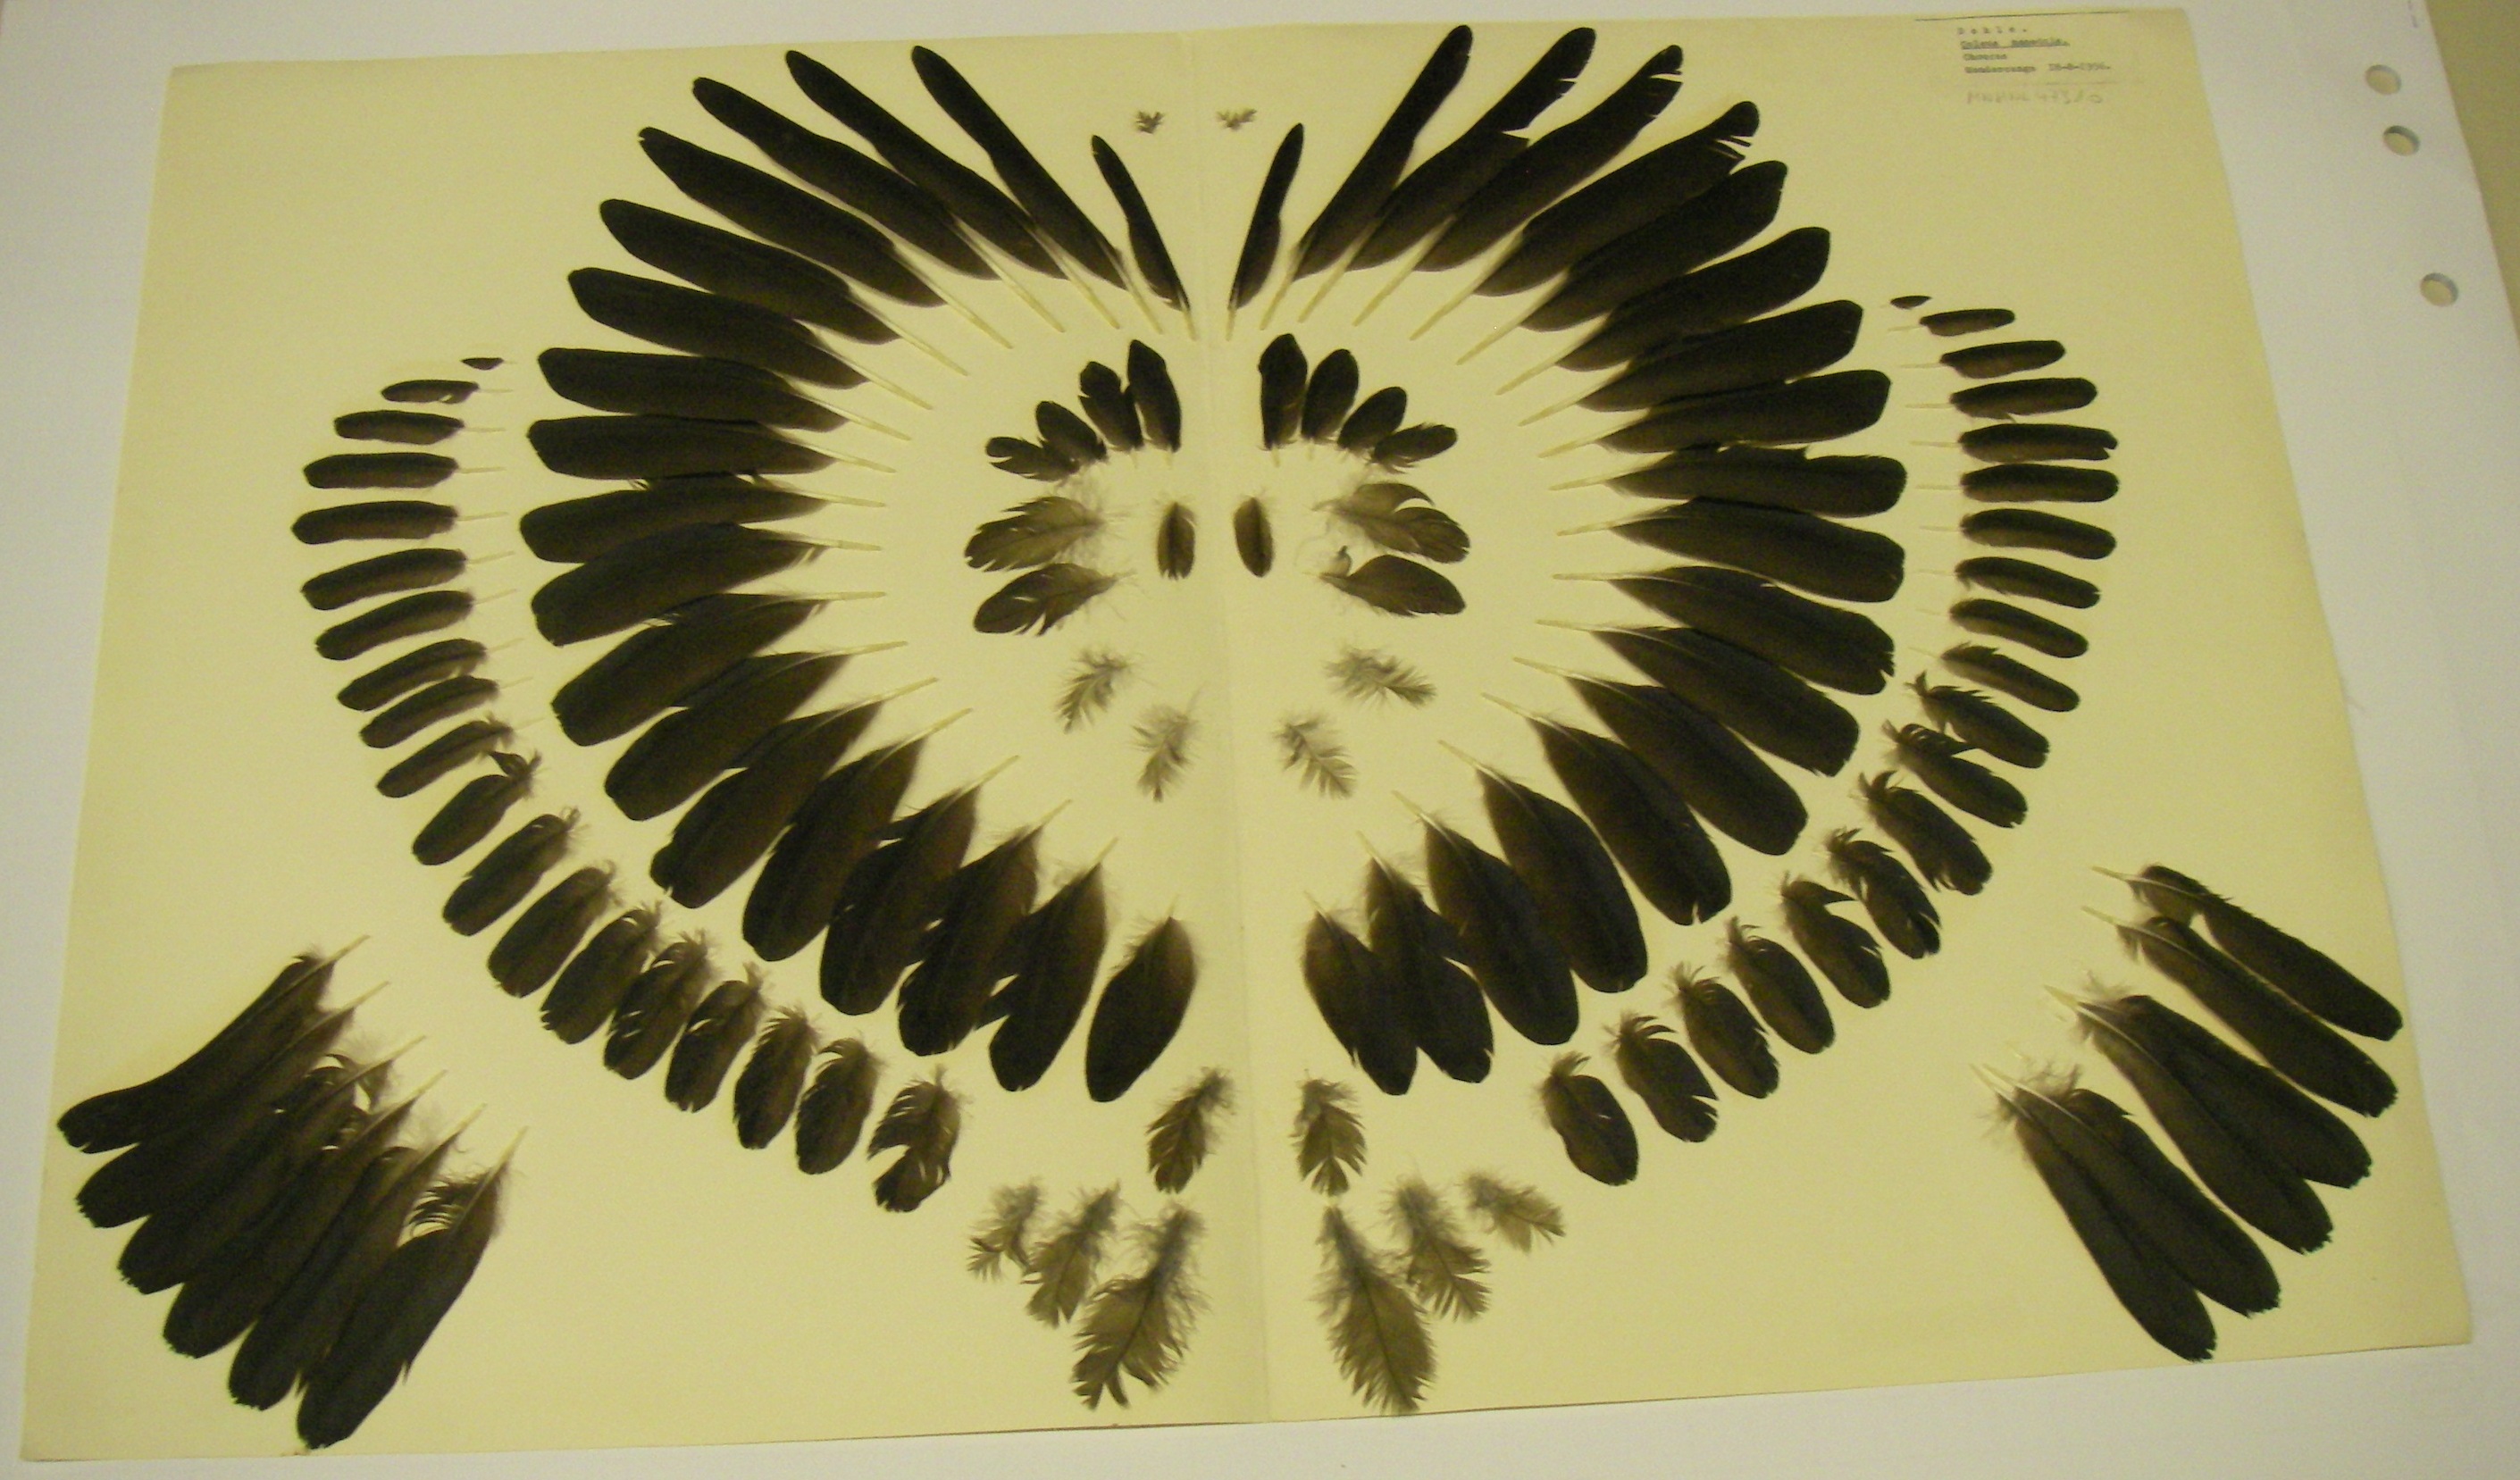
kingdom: Animalia
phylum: Chordata
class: Aves
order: Passeriformes
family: Corvidae
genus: Coloeus
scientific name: Coloeus monedula
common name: Western jackdaw
